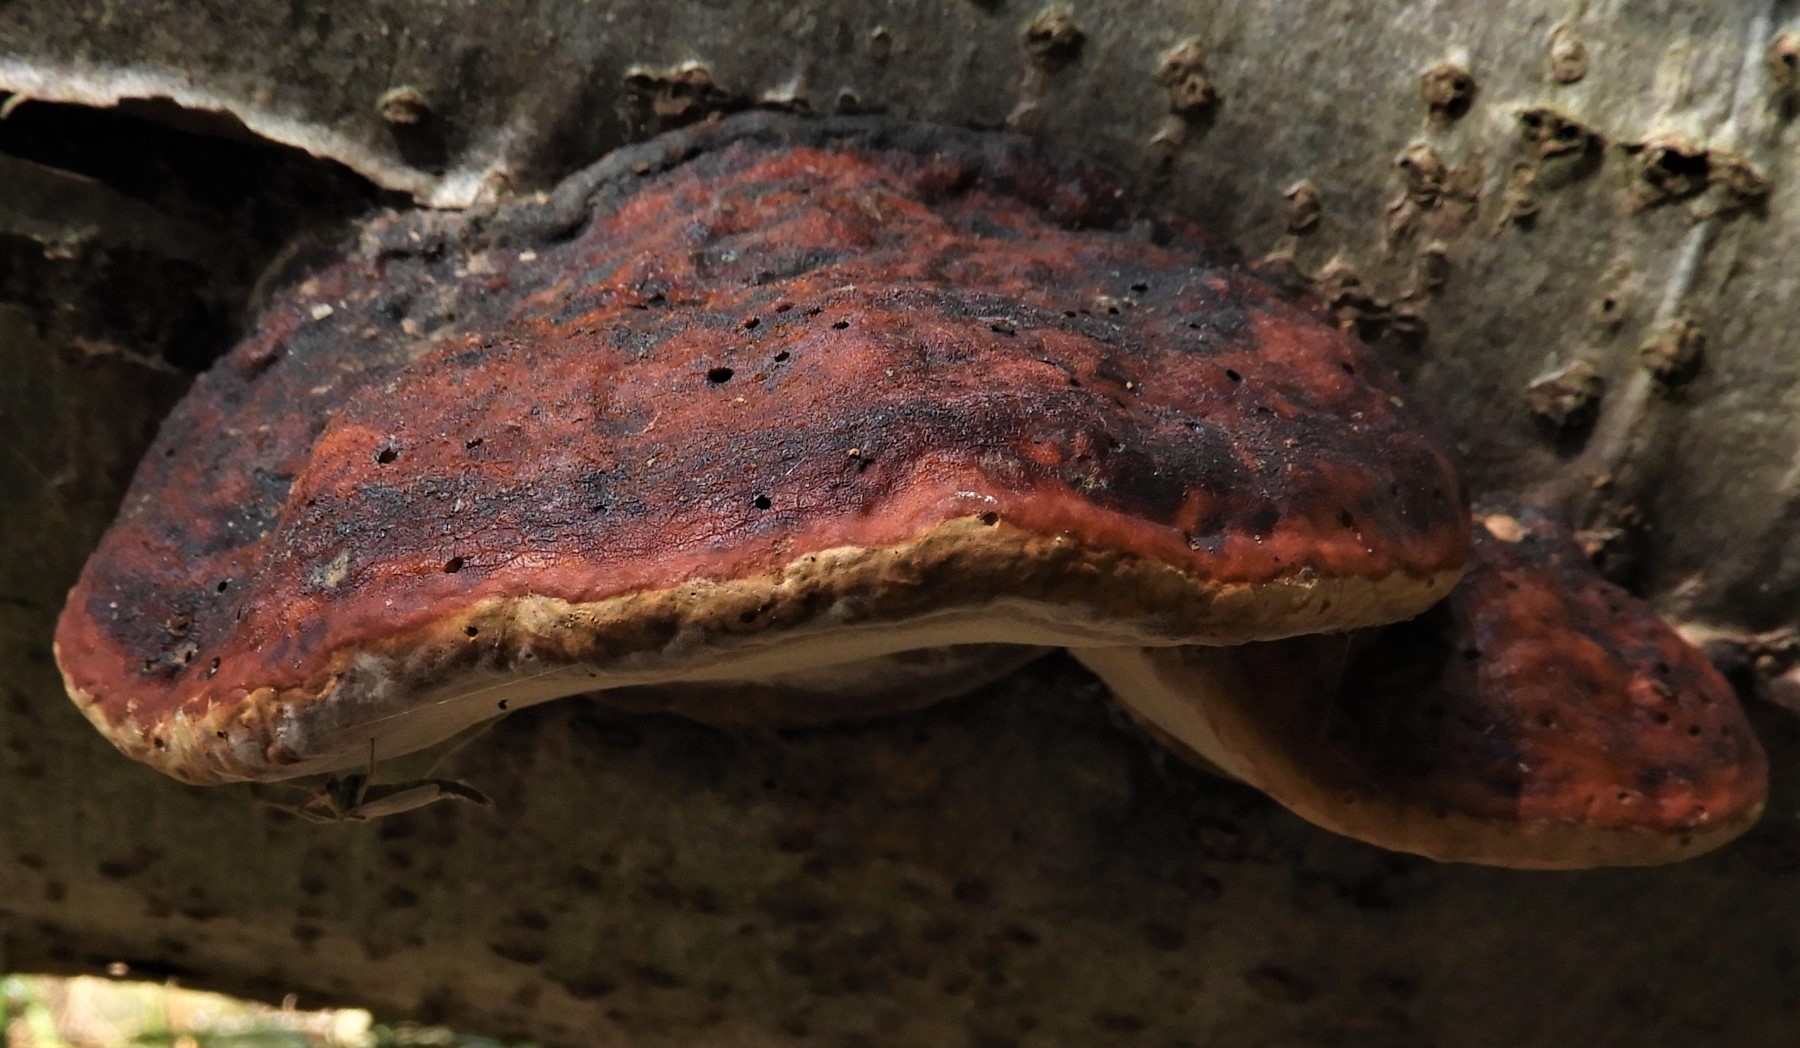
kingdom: Fungi
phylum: Basidiomycota
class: Agaricomycetes
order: Polyporales
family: Fomitopsidaceae
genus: Fomitopsis
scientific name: Fomitopsis pinicola
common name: randbæltet hovporesvamp
